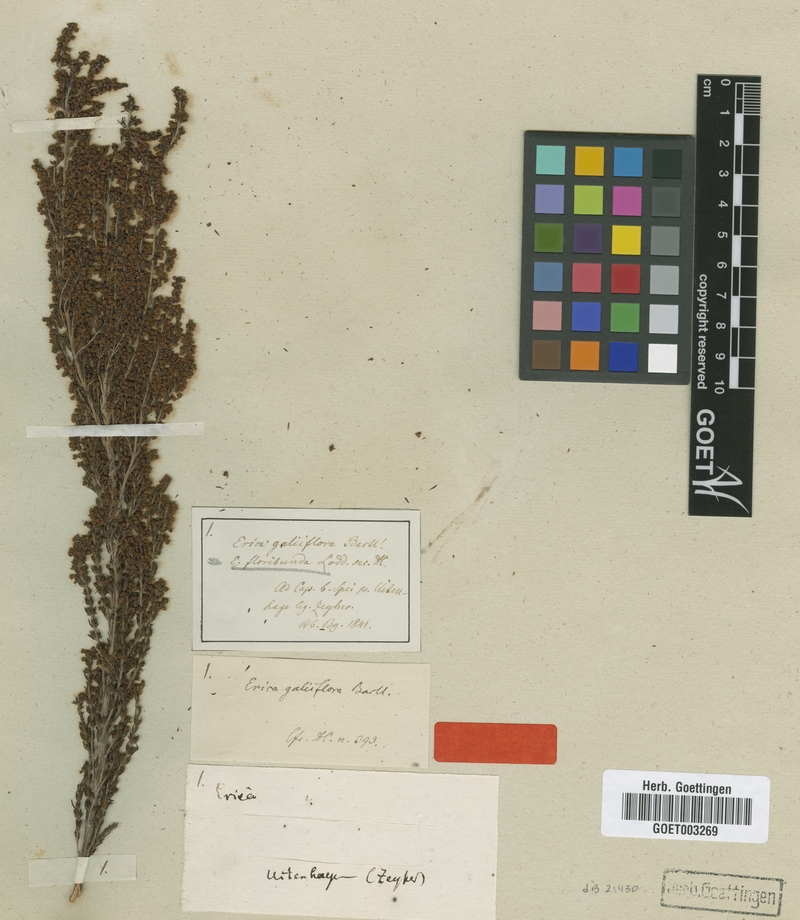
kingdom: Plantae
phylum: Tracheophyta
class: Magnoliopsida
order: Ericales
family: Ericaceae
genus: Erica
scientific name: Erica sparsa
